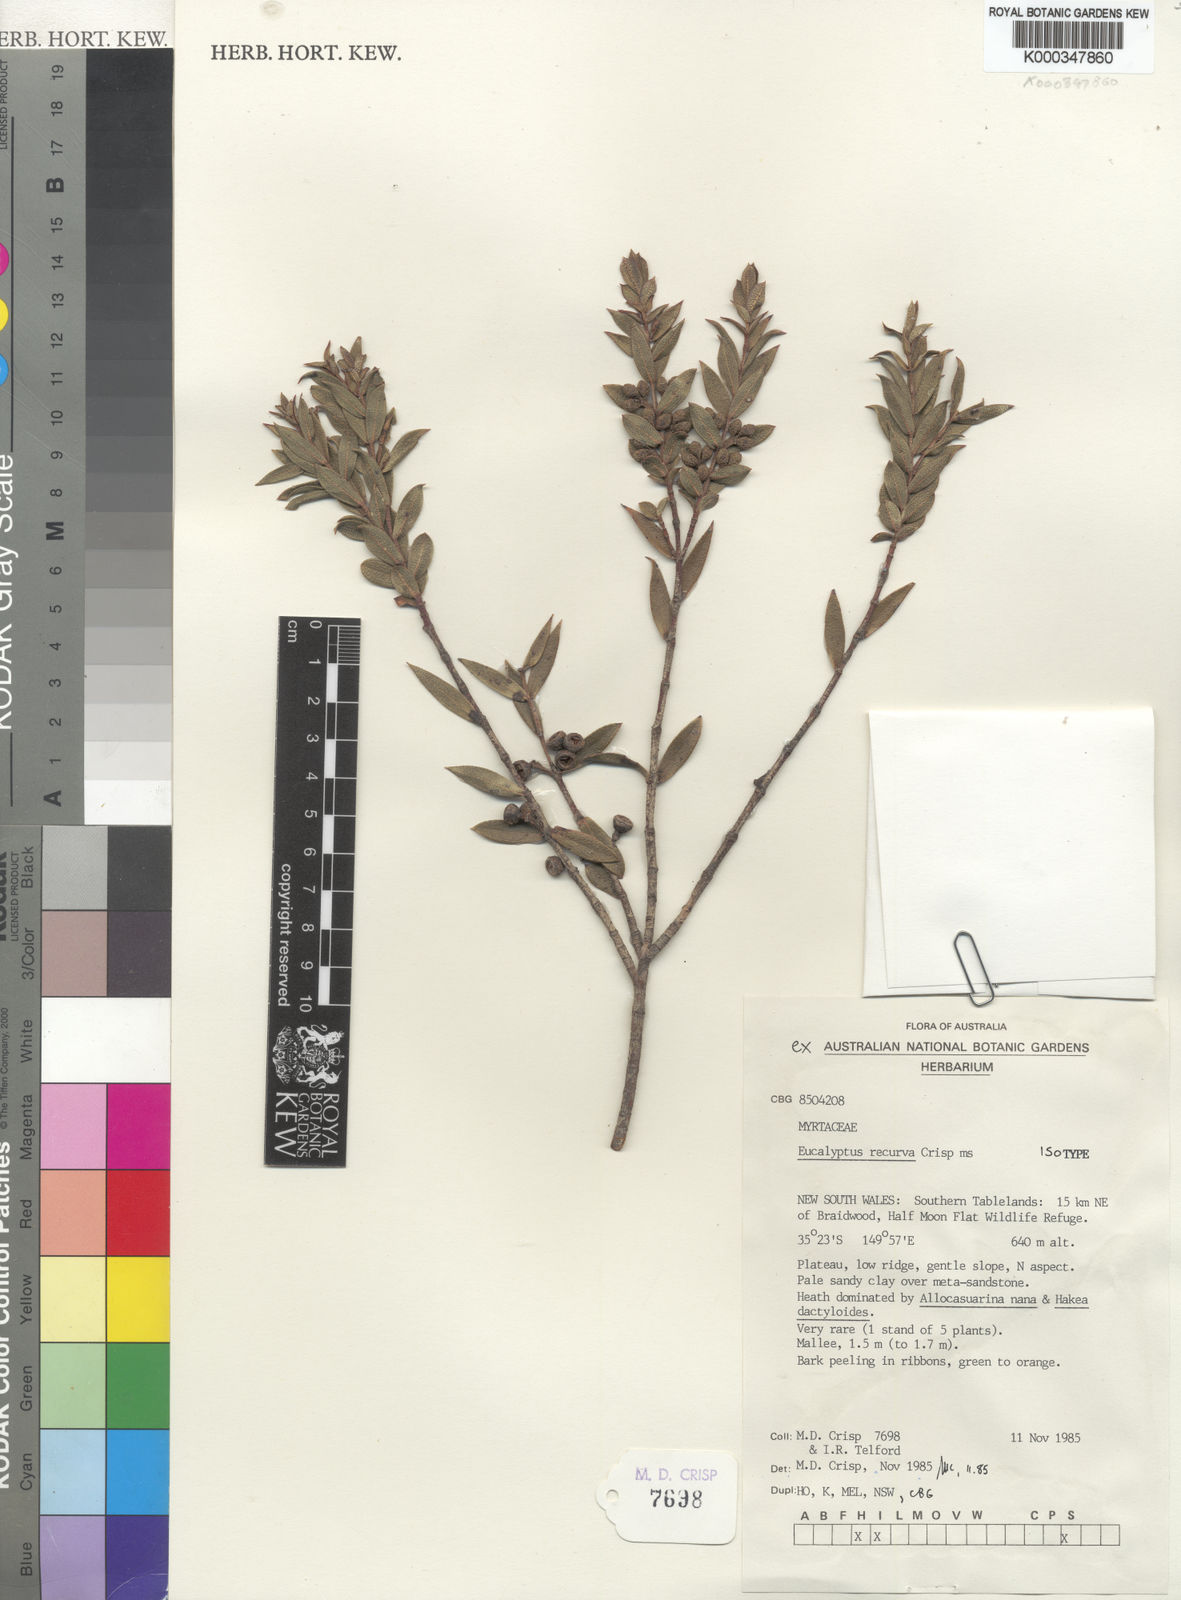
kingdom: Plantae
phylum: Tracheophyta
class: Magnoliopsida
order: Myrtales
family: Myrtaceae
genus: Eucalyptus
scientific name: Eucalyptus recurva
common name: Mongarlowe mallee
